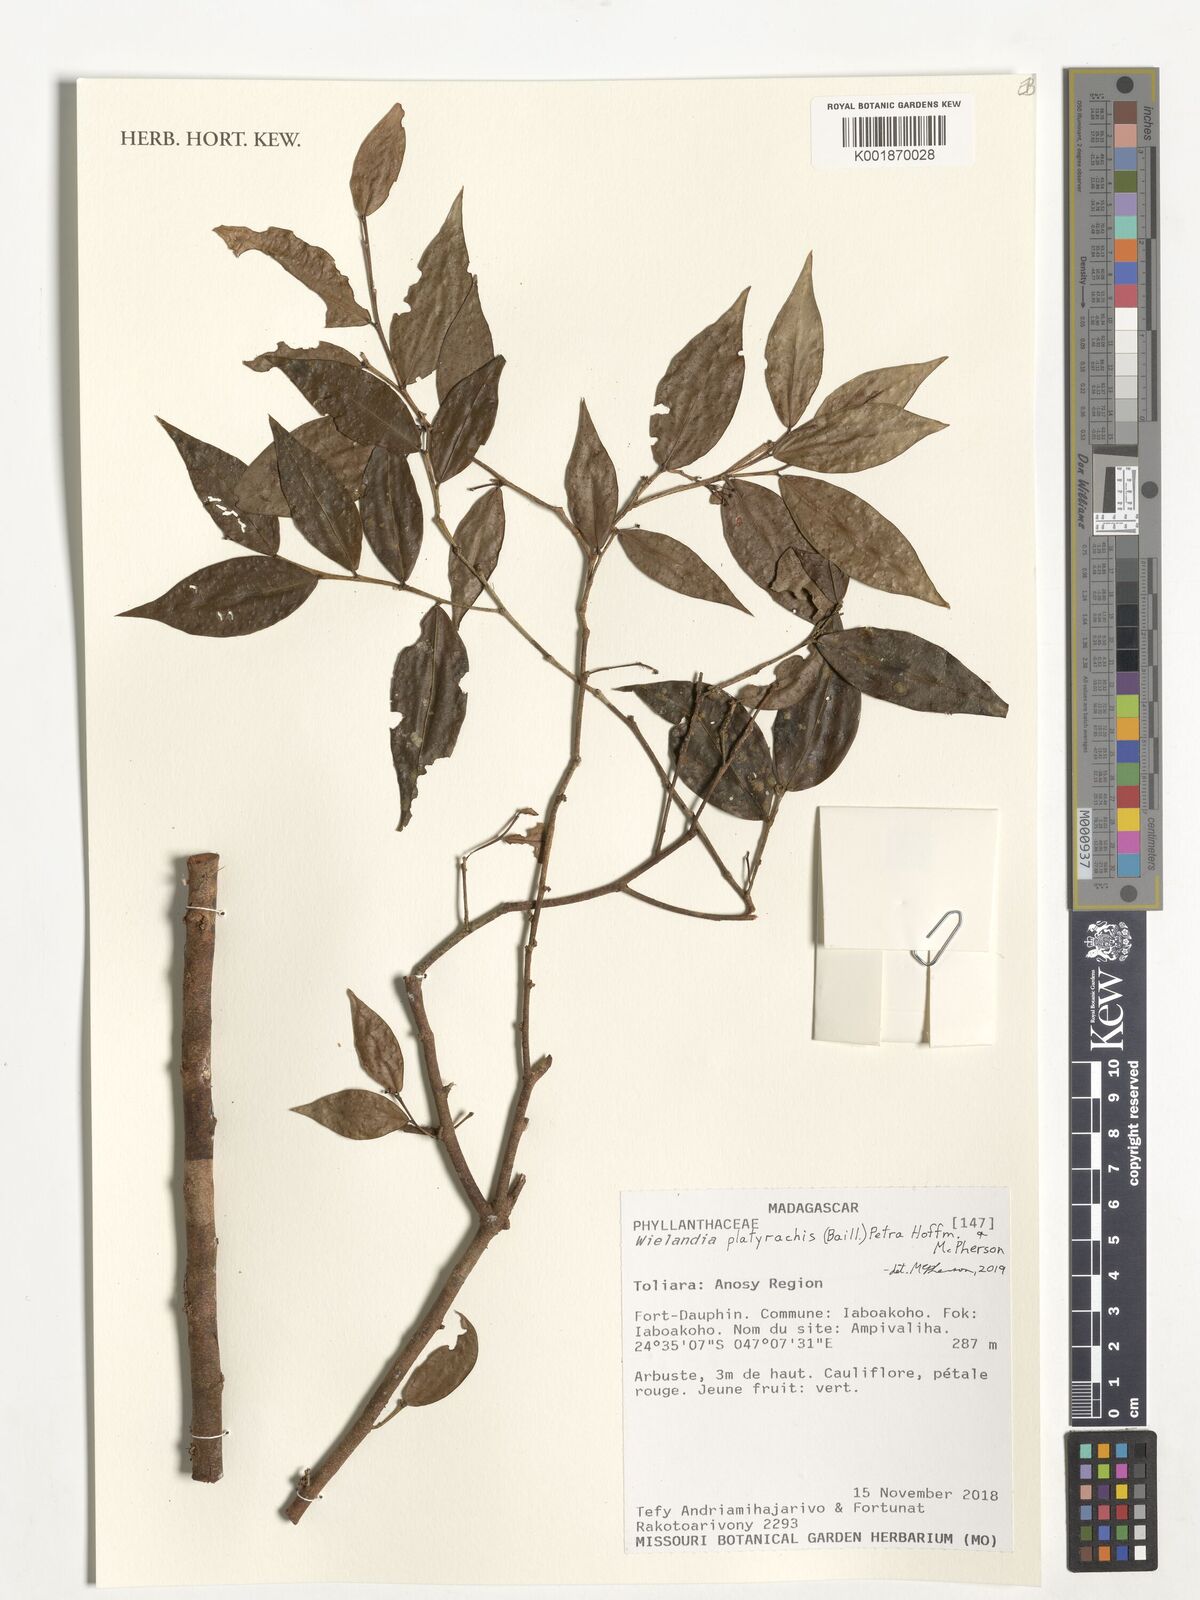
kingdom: Plantae
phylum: Tracheophyta
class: Magnoliopsida
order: Malpighiales
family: Phyllanthaceae
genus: Wielandia
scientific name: Wielandia platyrachis
